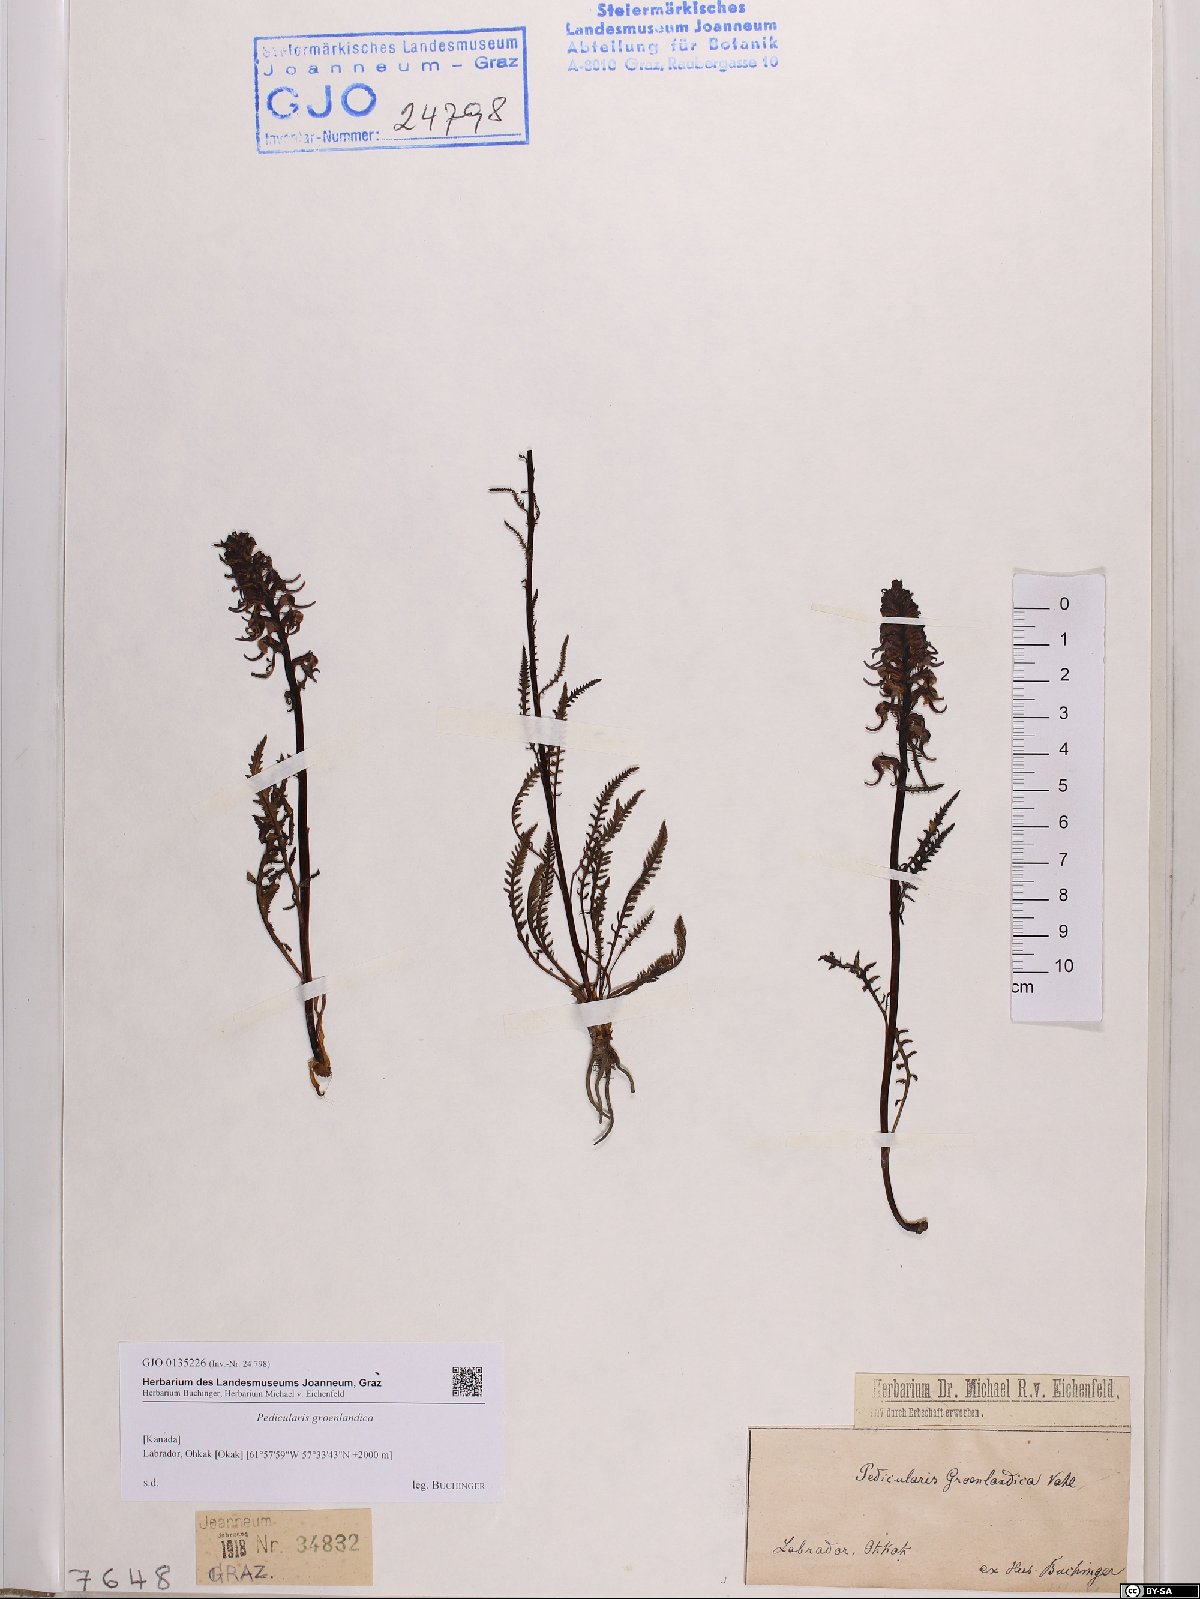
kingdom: Plantae
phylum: Tracheophyta
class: Magnoliopsida
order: Lamiales
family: Orobanchaceae
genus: Pedicularis
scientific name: Pedicularis groenlandica
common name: Elephant's-head
